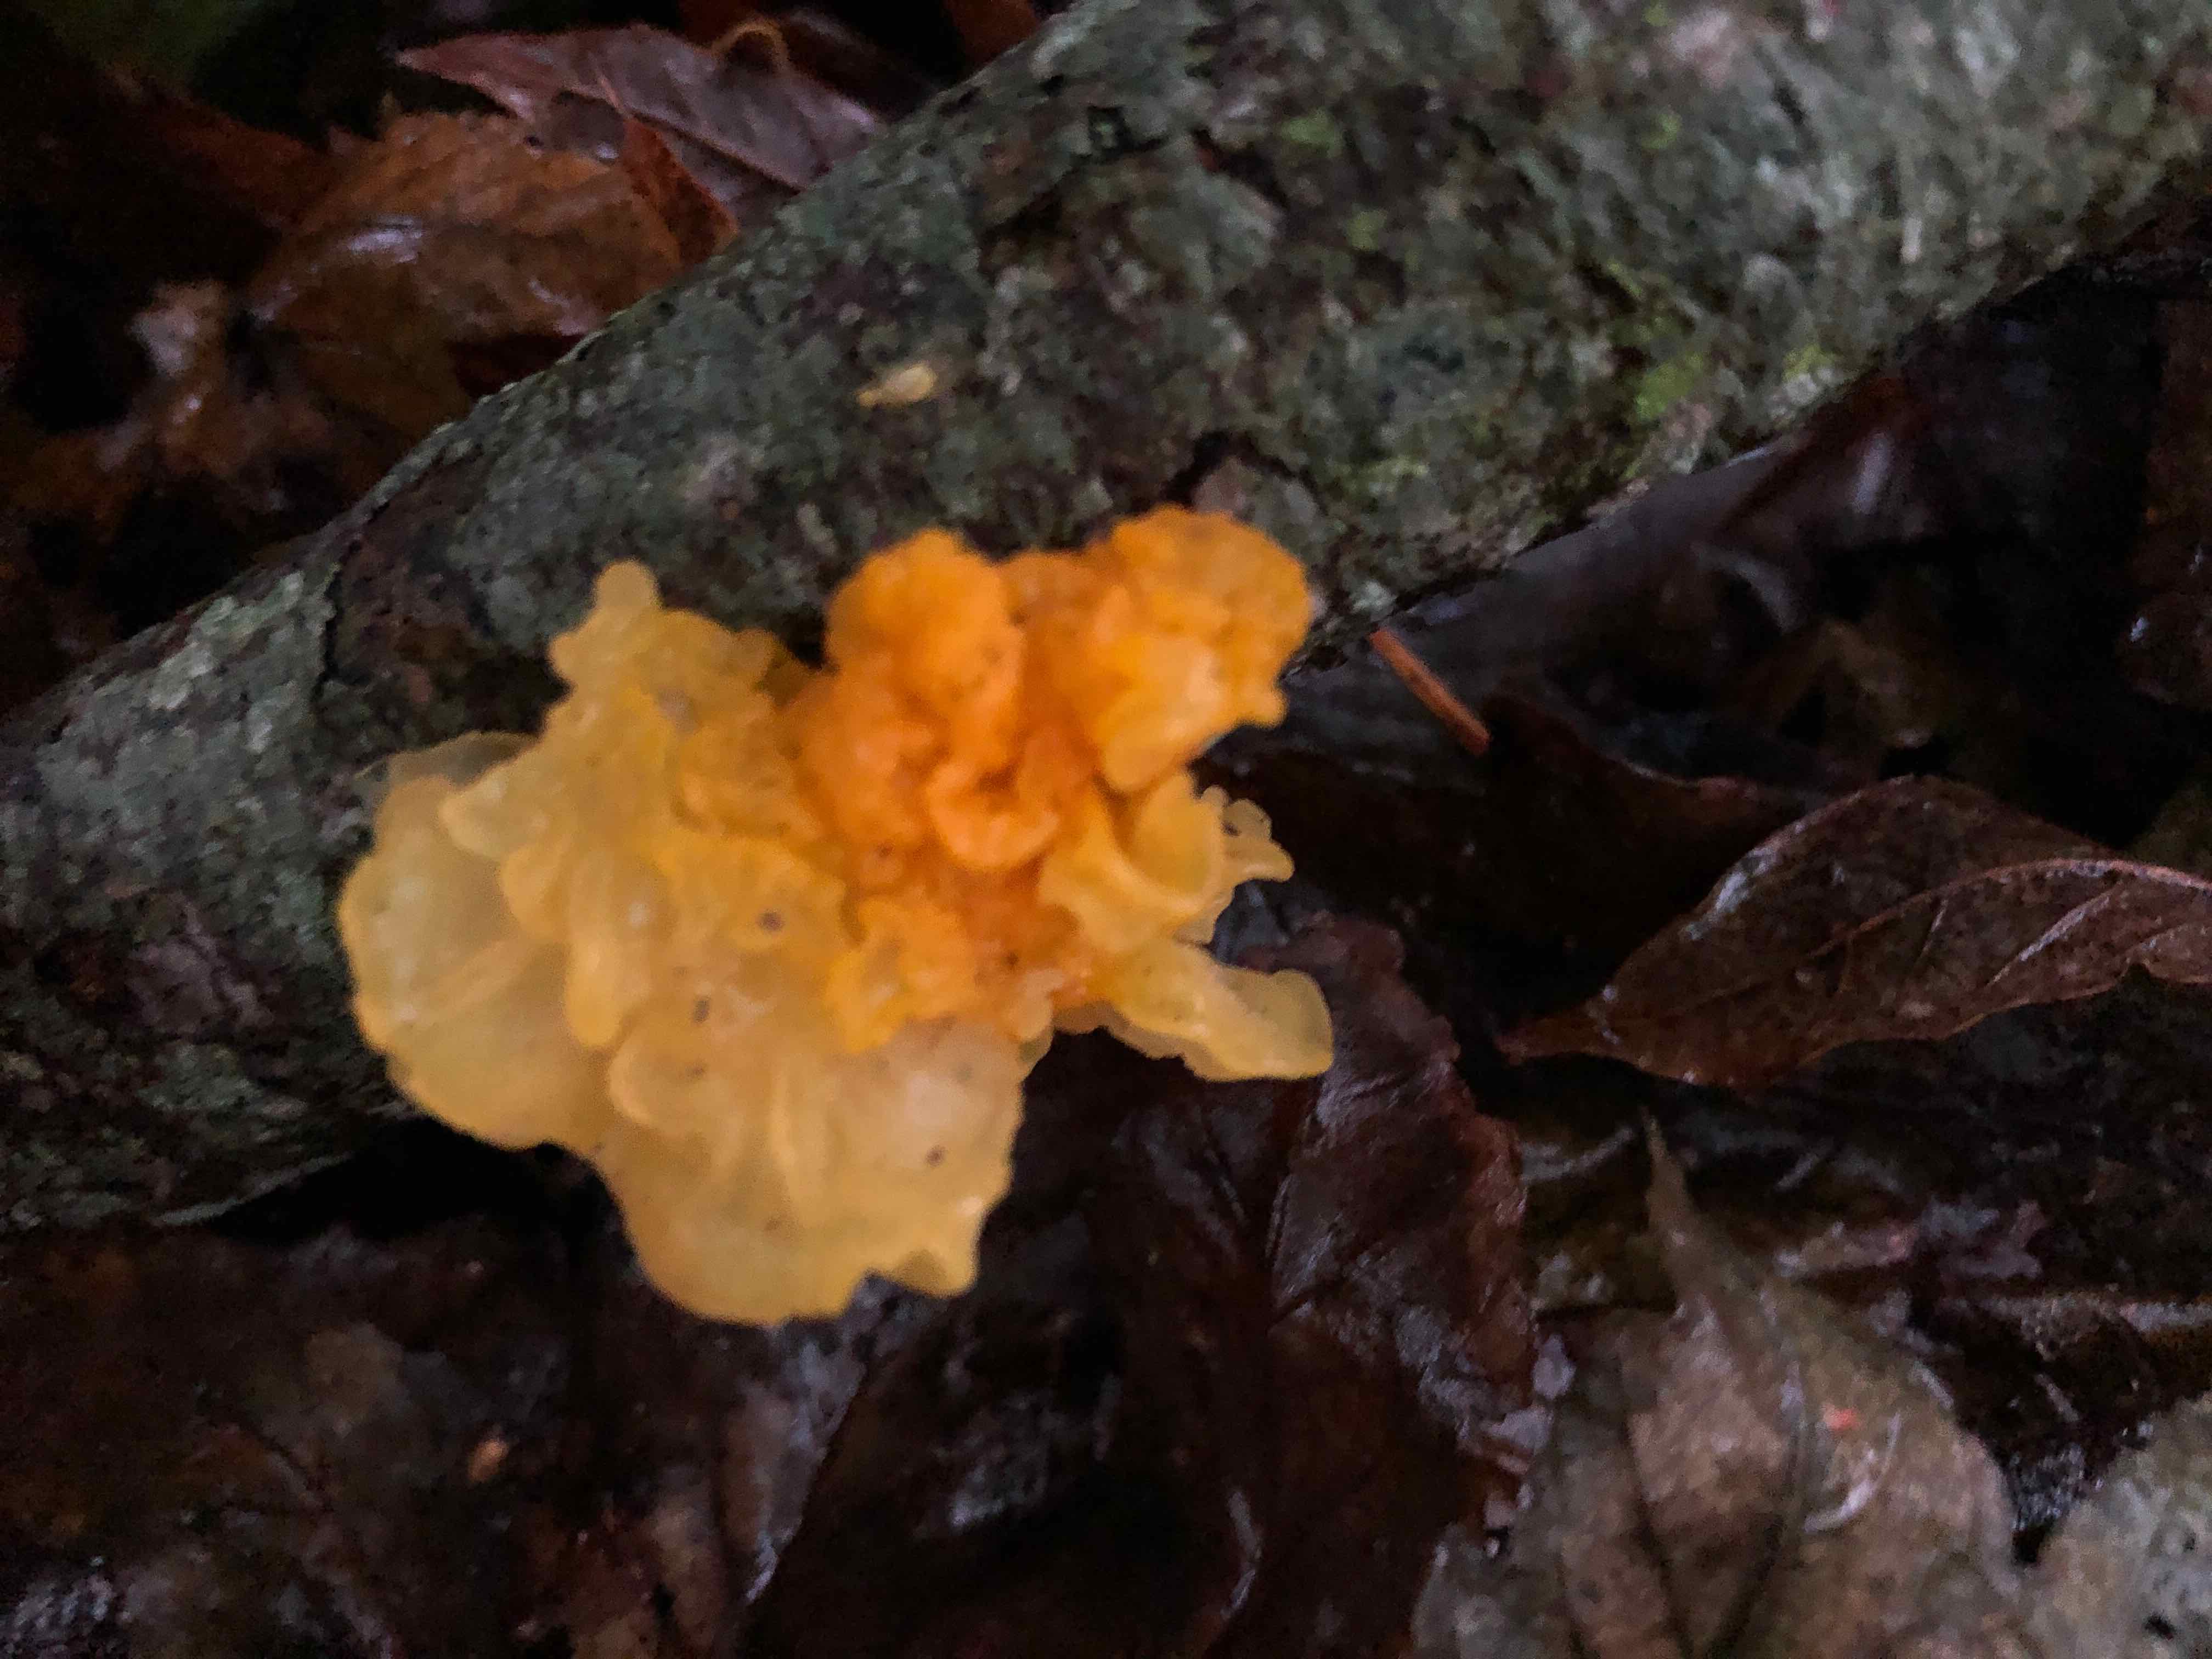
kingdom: Fungi
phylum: Basidiomycota
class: Tremellomycetes
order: Tremellales
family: Tremellaceae
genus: Tremella
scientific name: Tremella mesenterica
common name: gul bævresvamp
